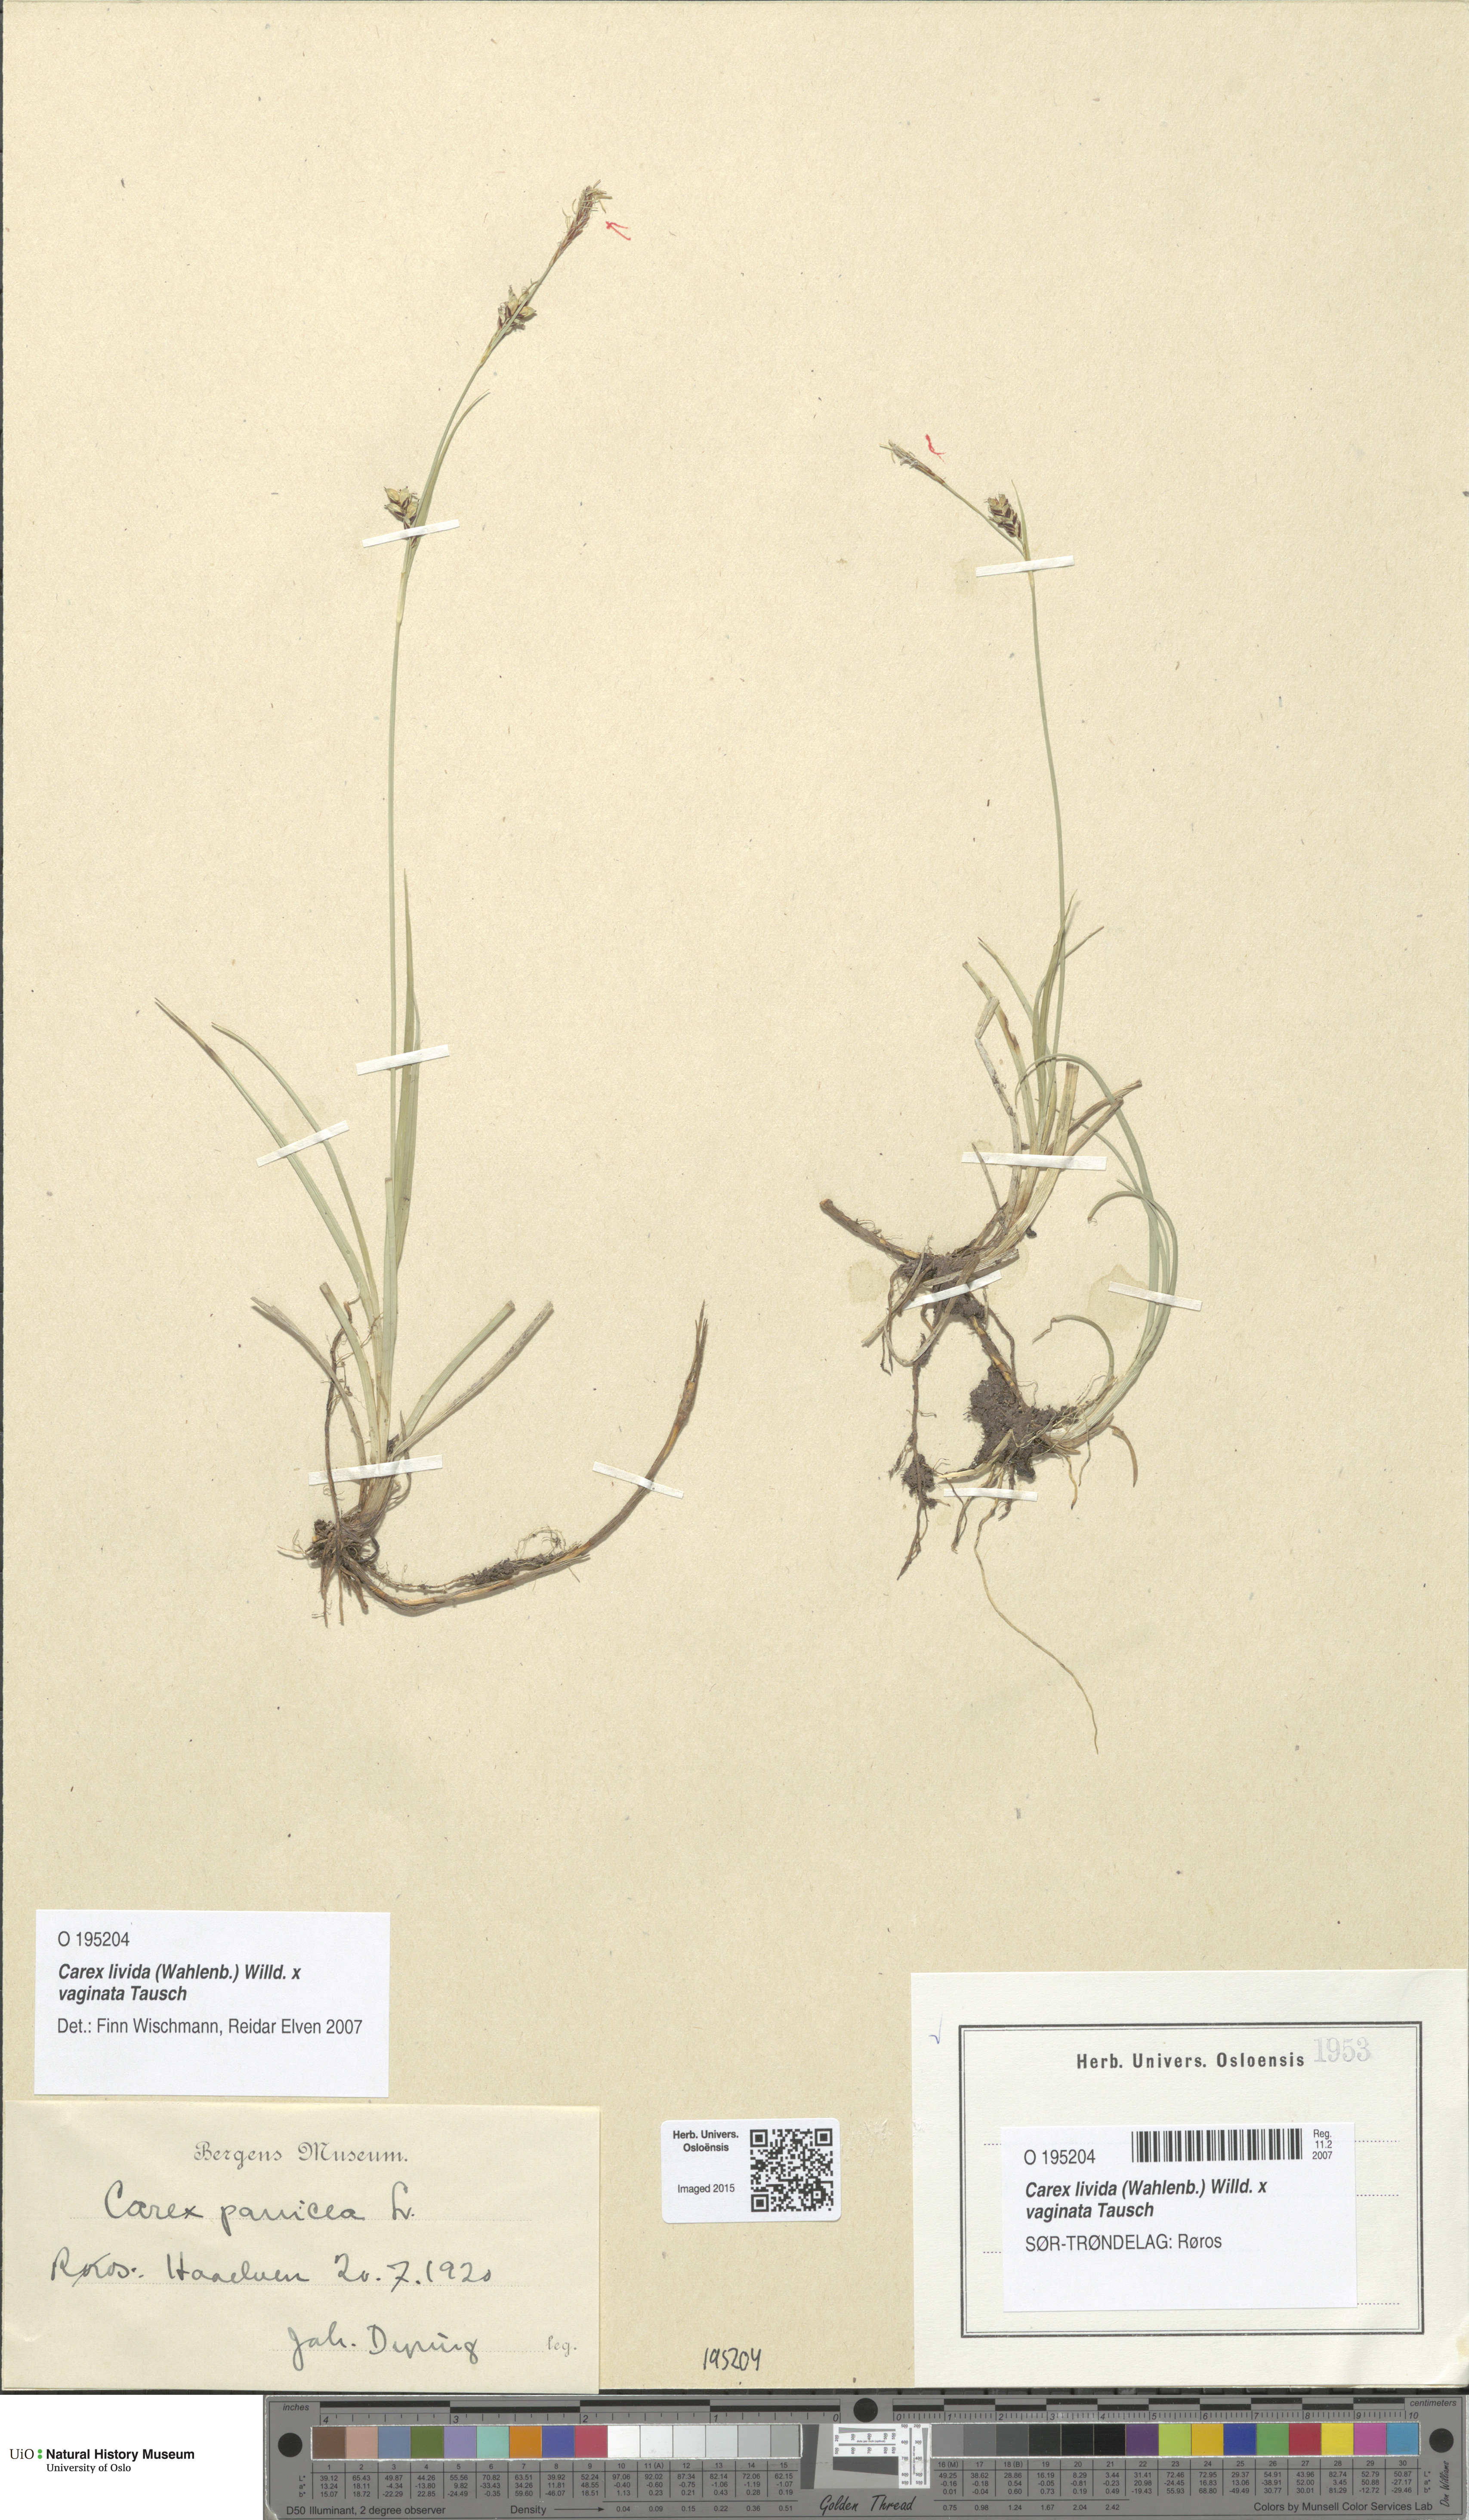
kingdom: Plantae
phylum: Tracheophyta
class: Liliopsida
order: Poales
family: Cyperaceae
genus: Carex
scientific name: Carex
